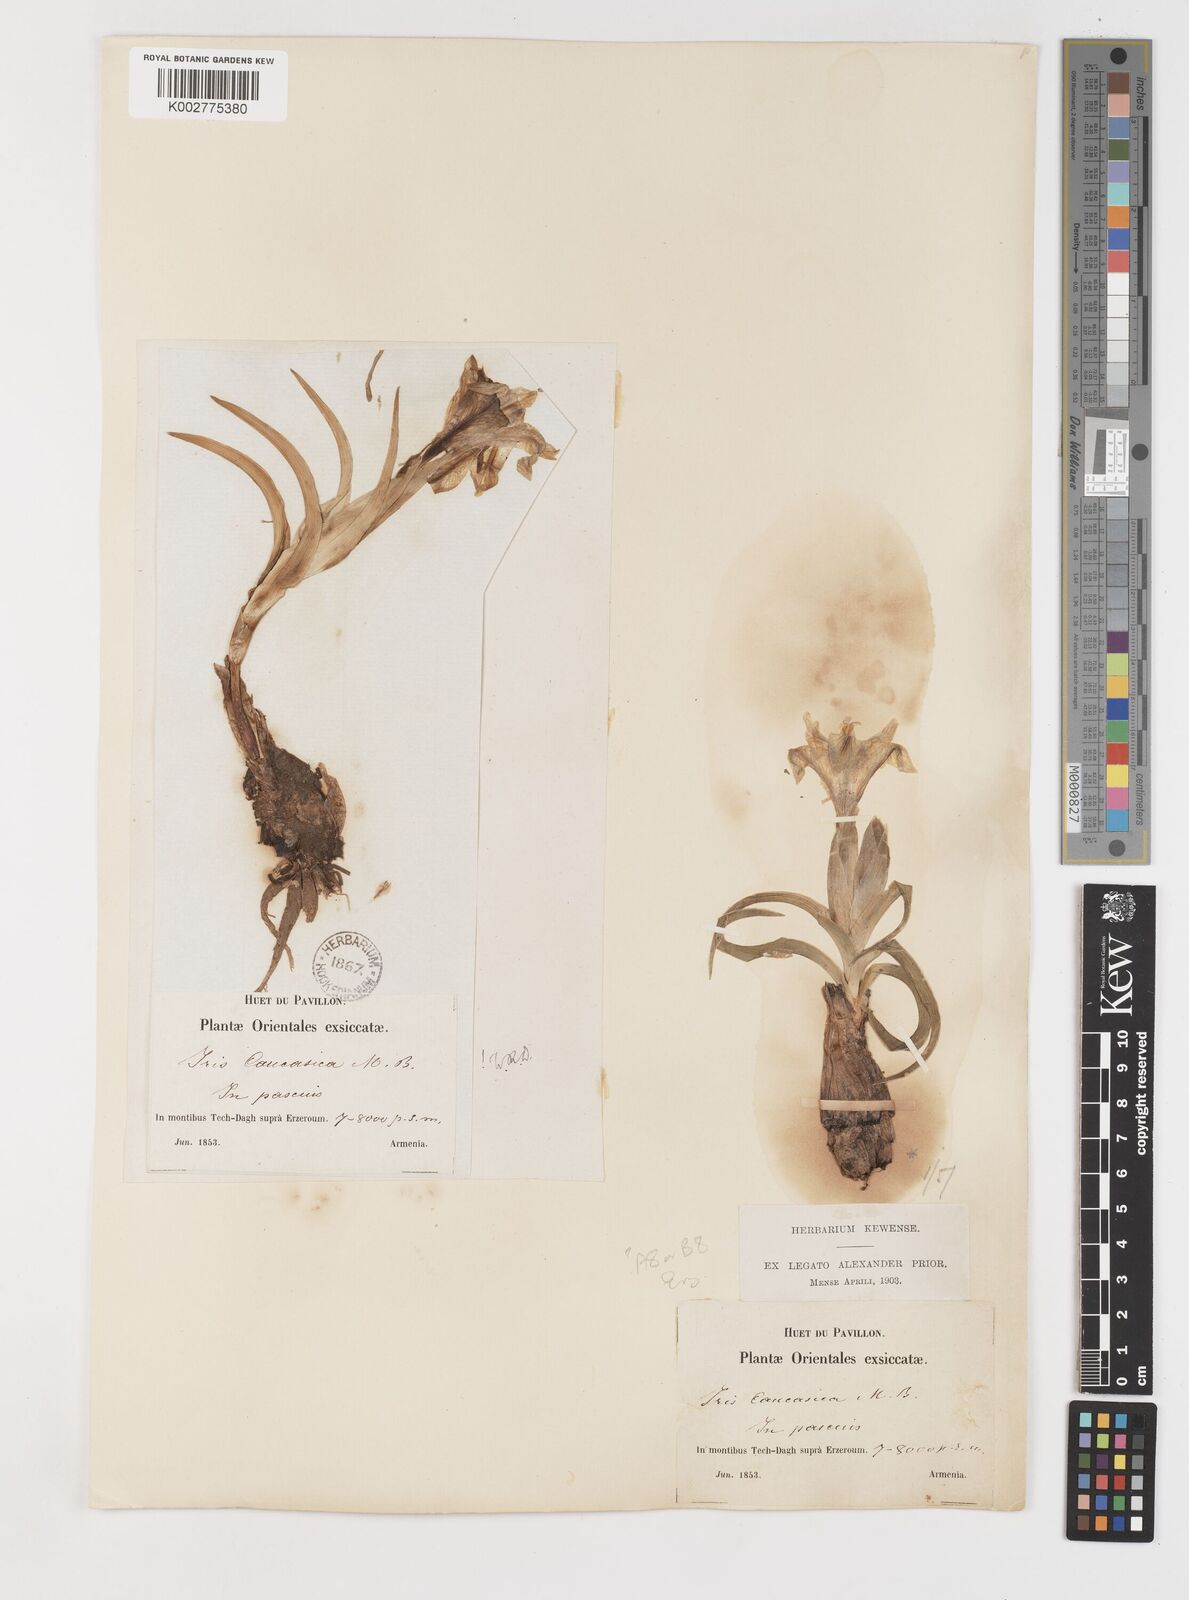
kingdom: Plantae
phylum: Tracheophyta
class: Liliopsida
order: Asparagales
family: Iridaceae
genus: Iris
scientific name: Iris caucasica
